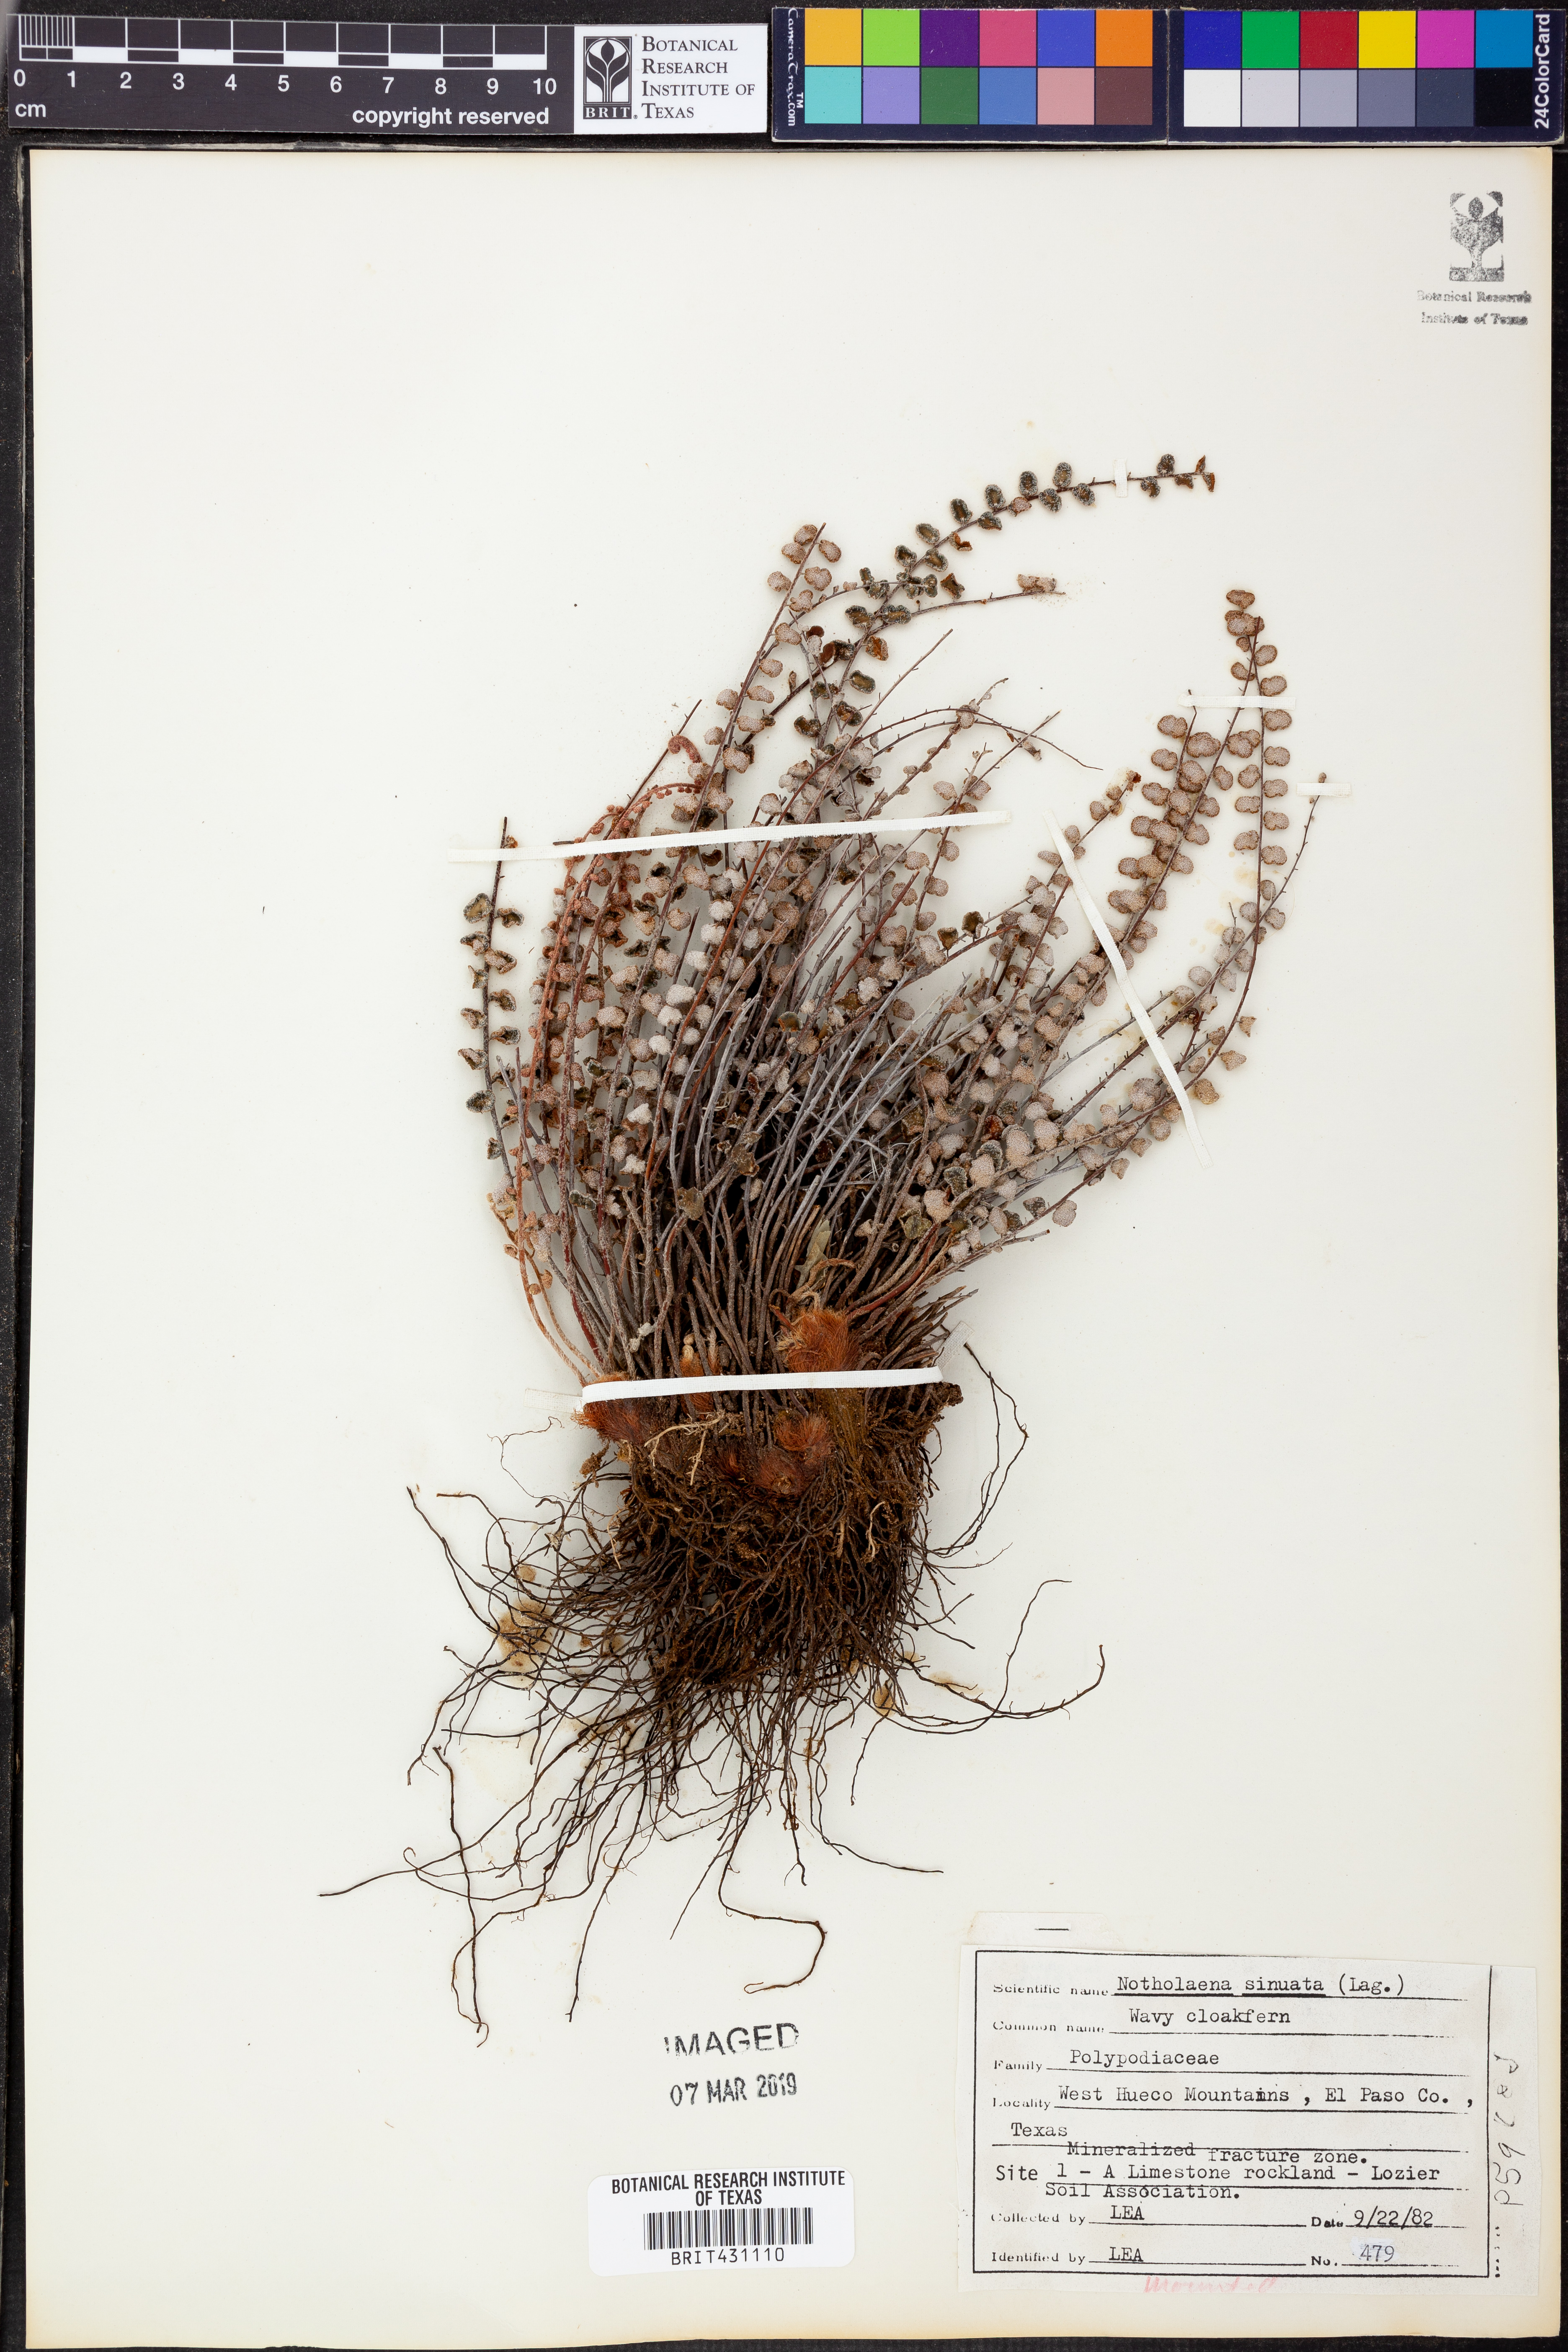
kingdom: Plantae
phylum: Tracheophyta
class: Polypodiopsida
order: Polypodiales
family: Pteridaceae
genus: Astrolepis
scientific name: Astrolepis sinuata
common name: Wavy scaly cloakfern
